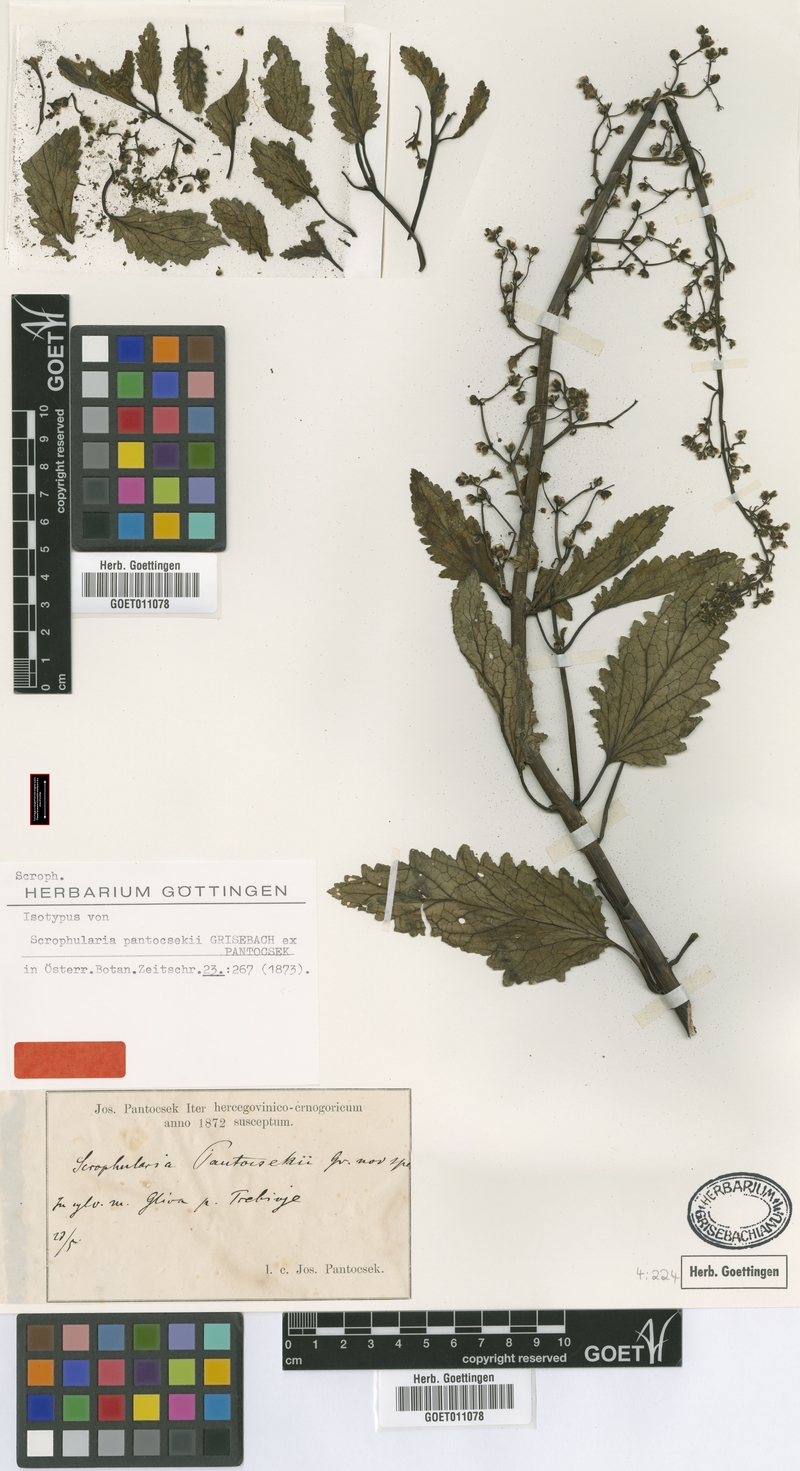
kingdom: Plantae
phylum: Tracheophyta
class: Magnoliopsida
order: Lamiales
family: Scrophulariaceae
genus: Scrophularia
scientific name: Scrophularia scopolii
